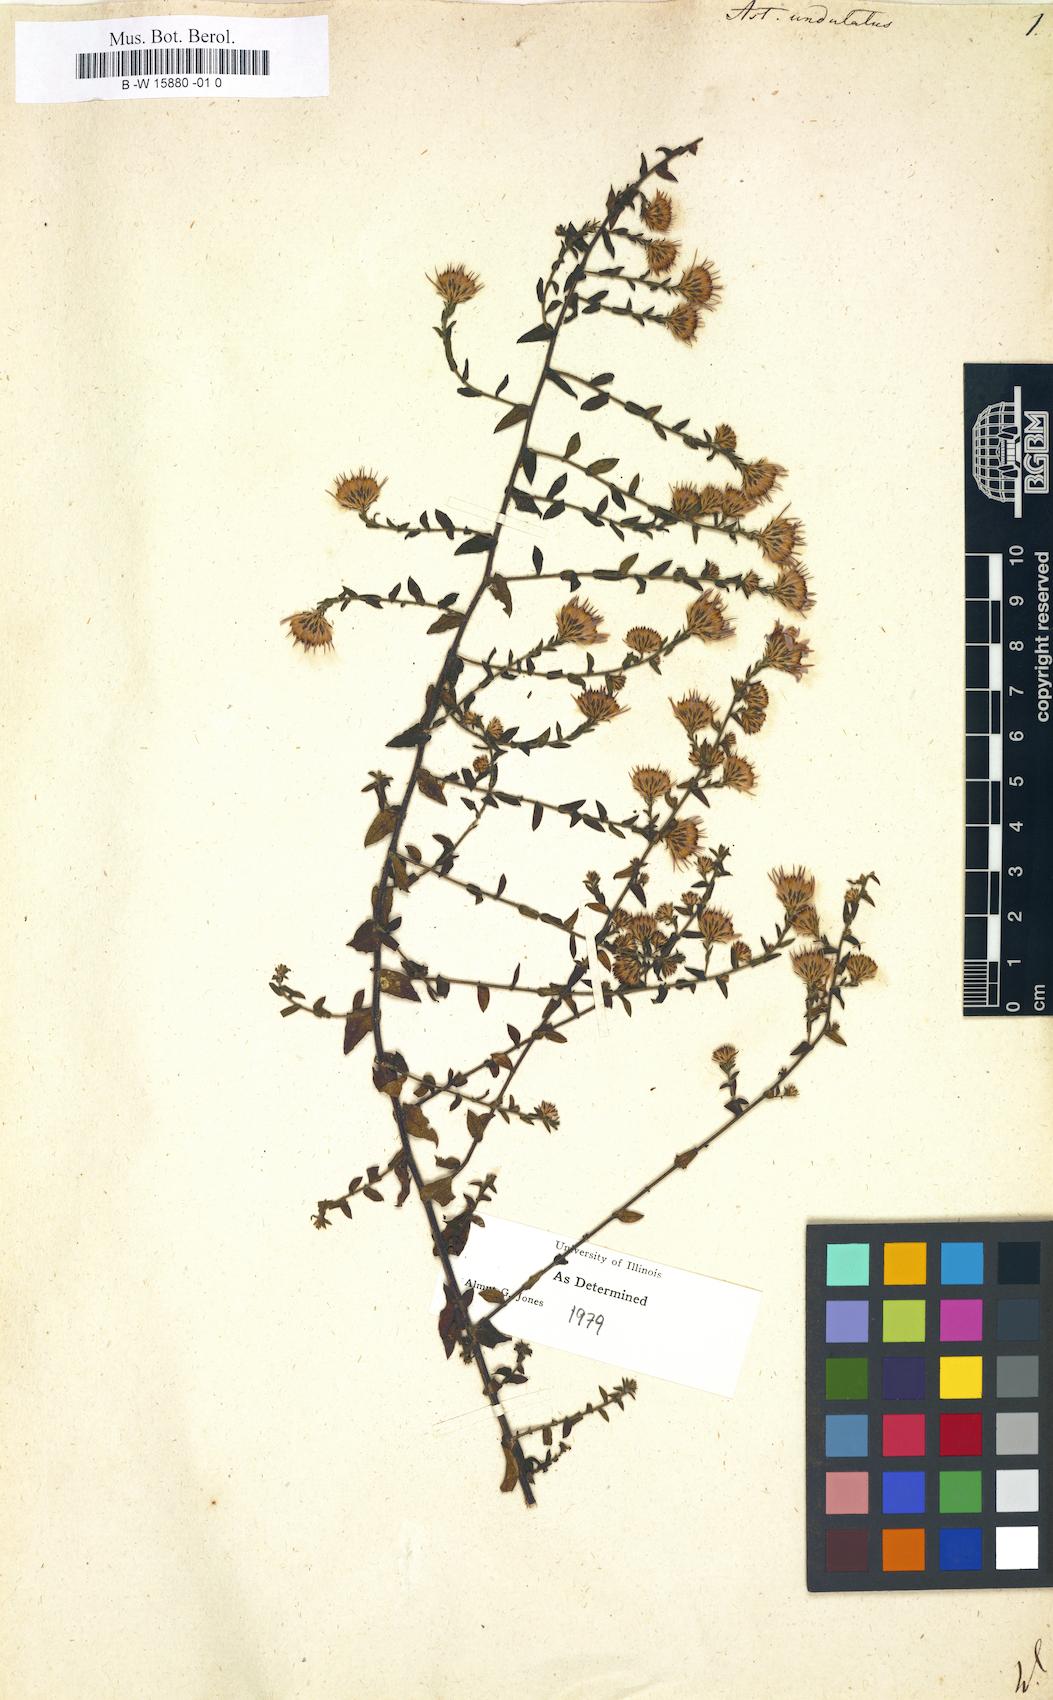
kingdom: Plantae
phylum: Tracheophyta
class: Magnoliopsida
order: Asterales
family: Asteraceae
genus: Symphyotrichum
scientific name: Symphyotrichum undulatum
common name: Clasping heart-leaf aster
